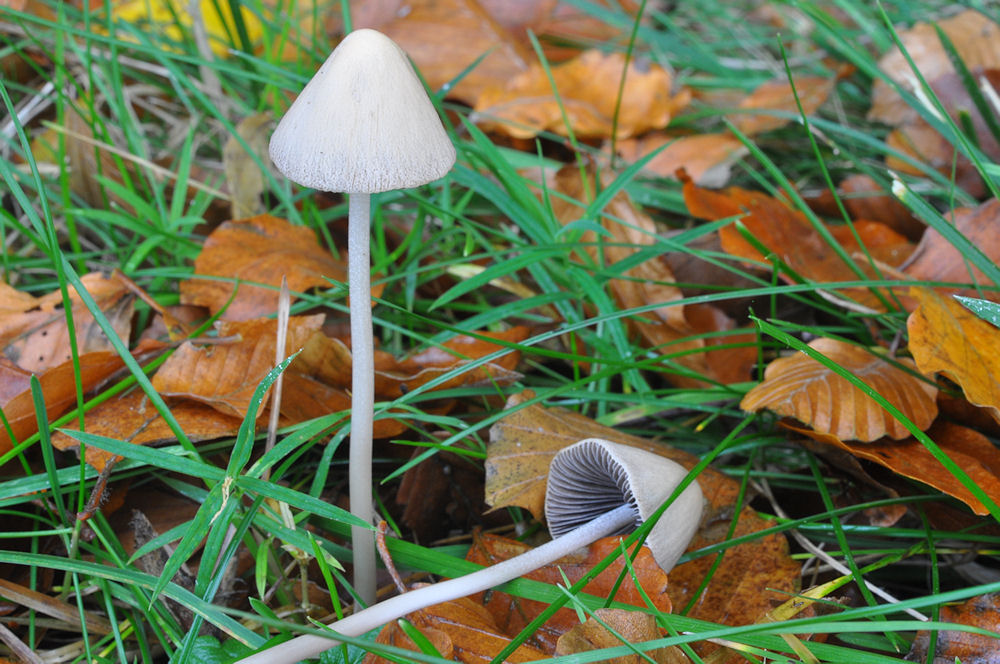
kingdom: Fungi
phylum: Basidiomycota
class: Agaricomycetes
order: Agaricales
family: Psathyrellaceae
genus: Parasola
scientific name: Parasola conopilea
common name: kegle-hjulhat
